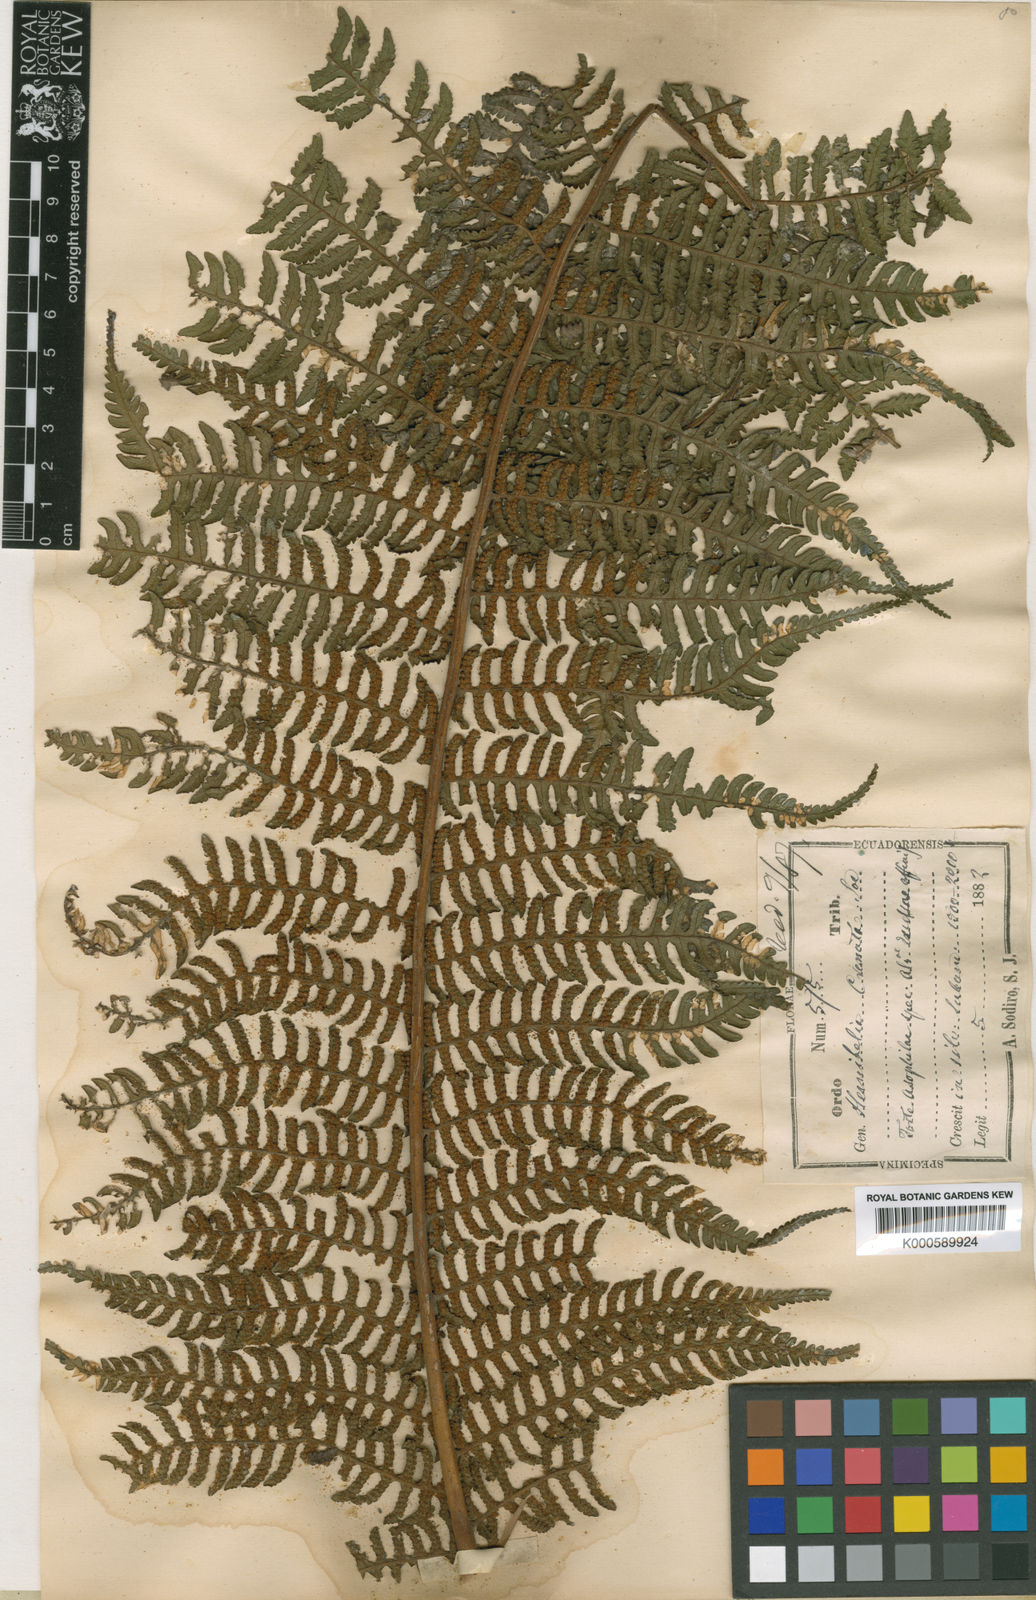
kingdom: Plantae
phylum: Tracheophyta
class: Polypodiopsida
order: Cyatheales
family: Cyatheaceae
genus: Cyathea
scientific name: Cyathea caracasana
